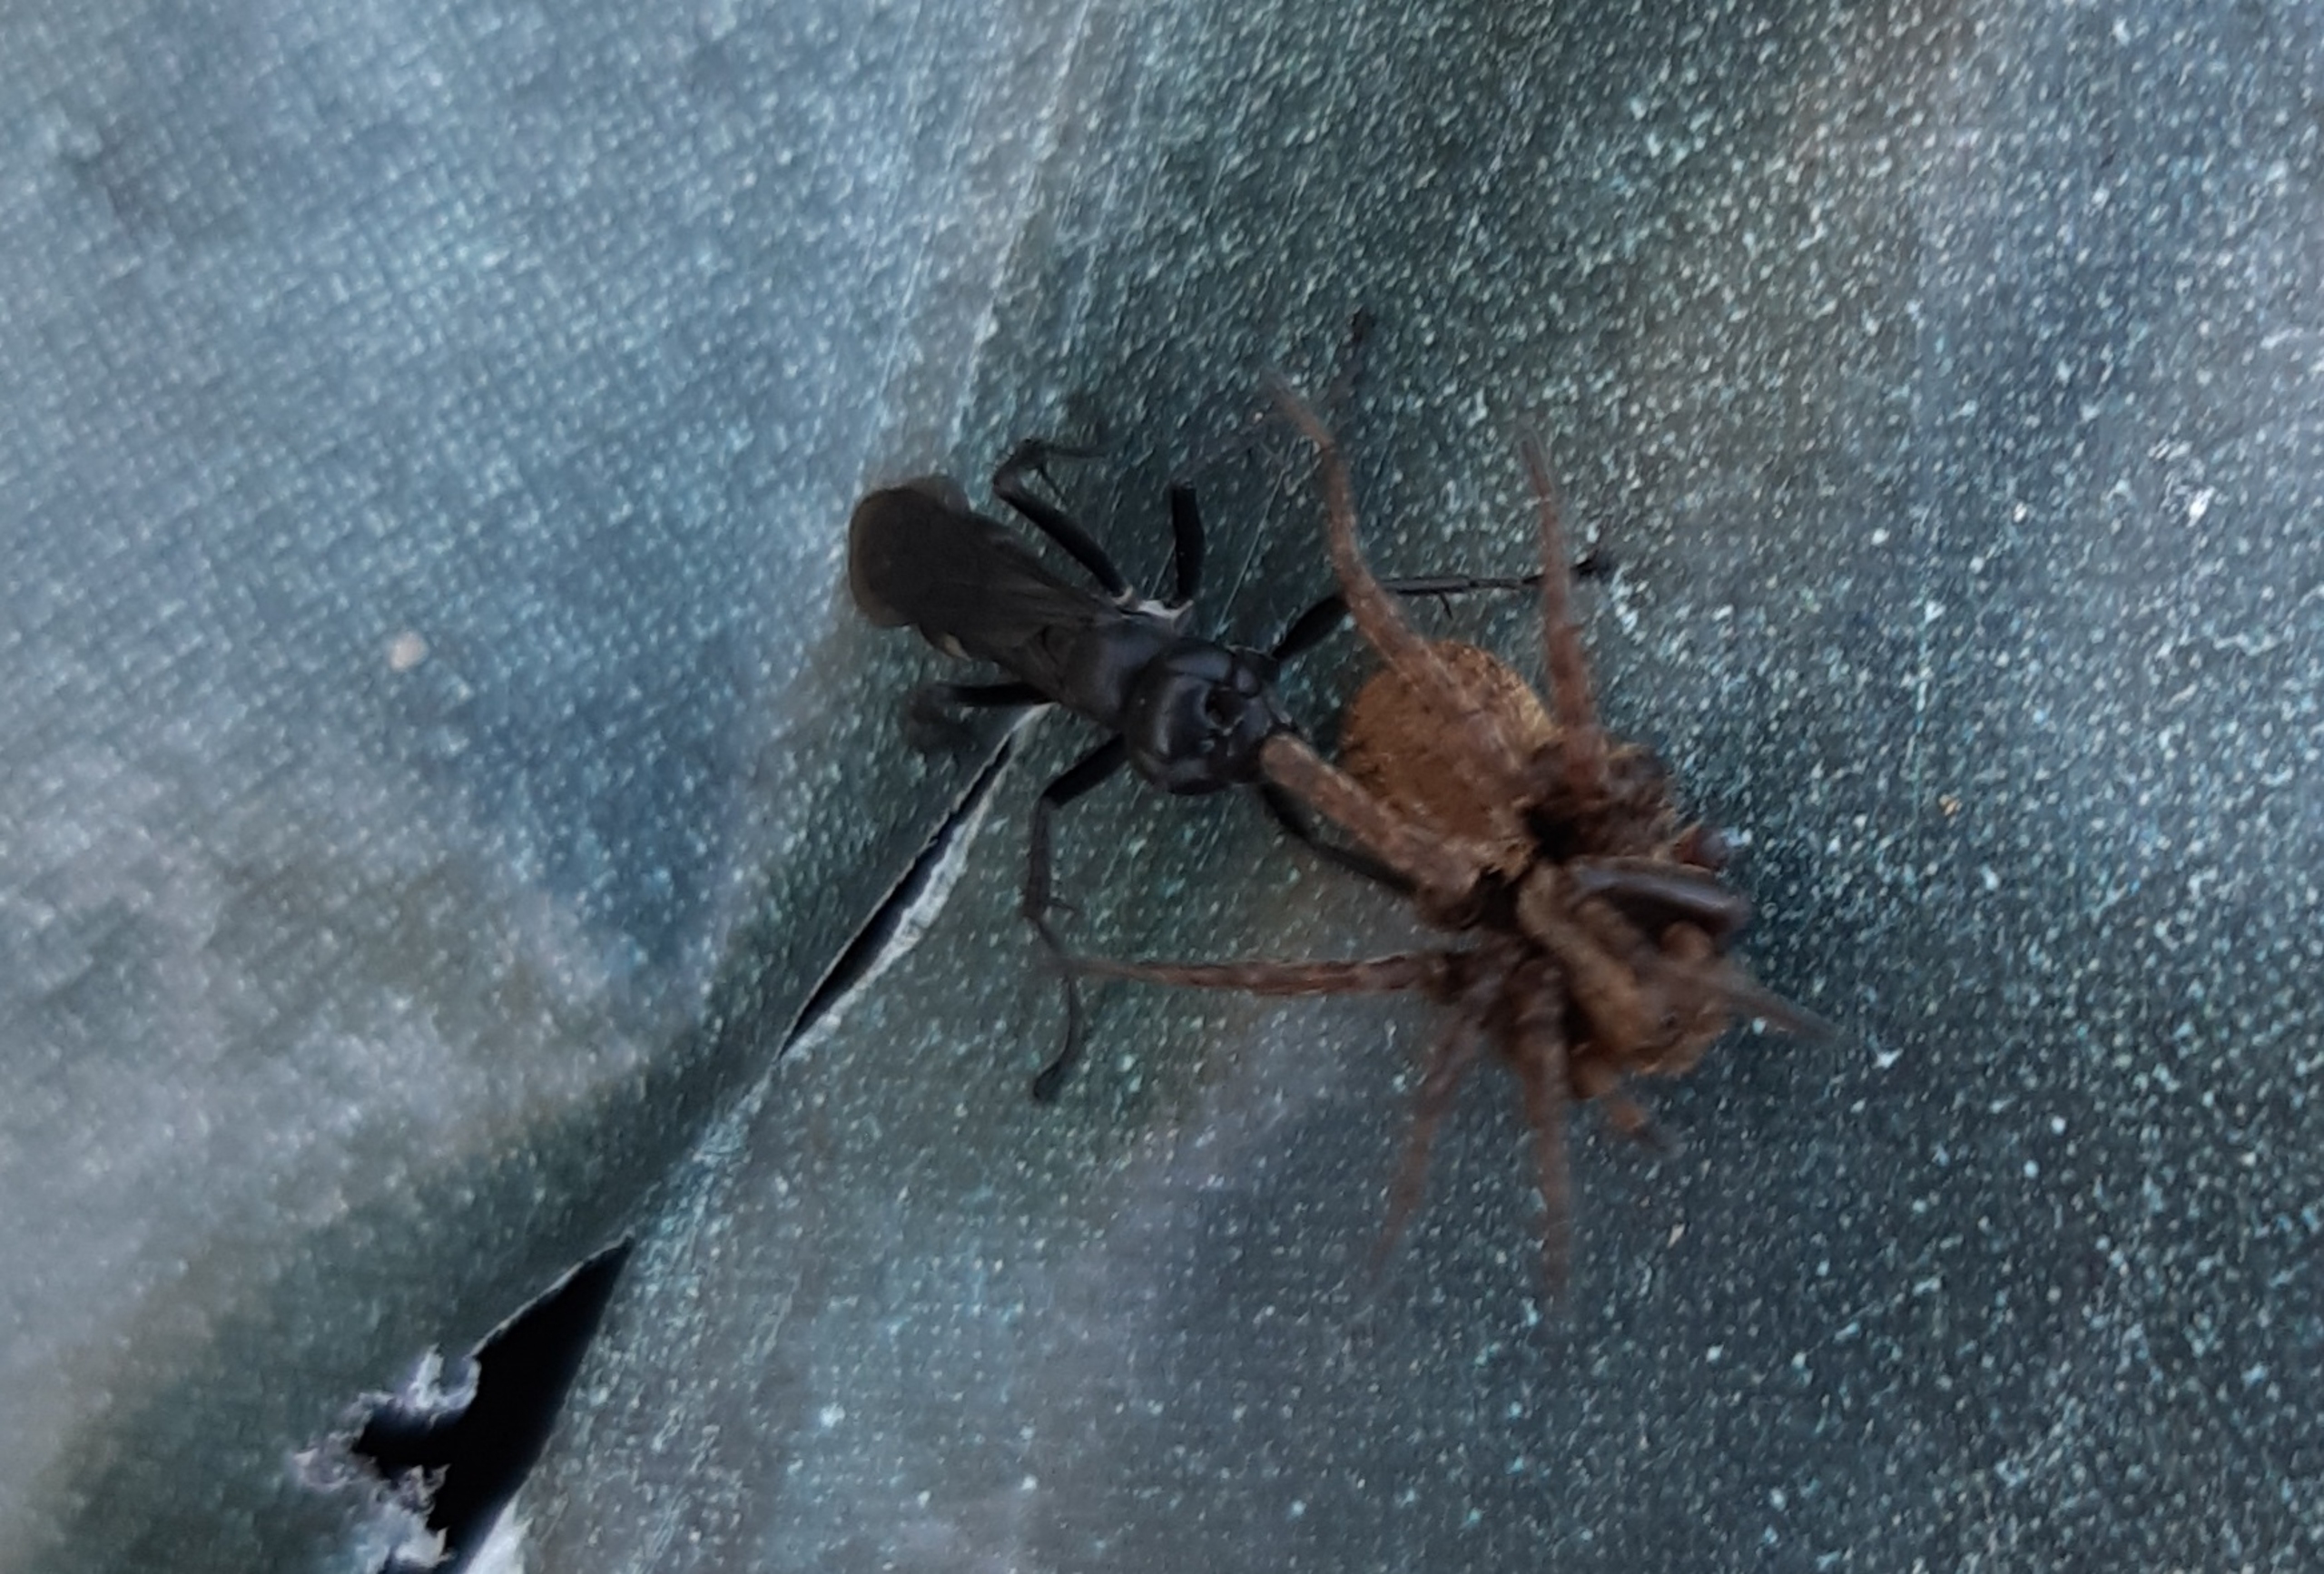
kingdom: Animalia
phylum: Arthropoda
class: Insecta
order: Hymenoptera
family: Pompilidae
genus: Anoplius
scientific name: Anoplius
